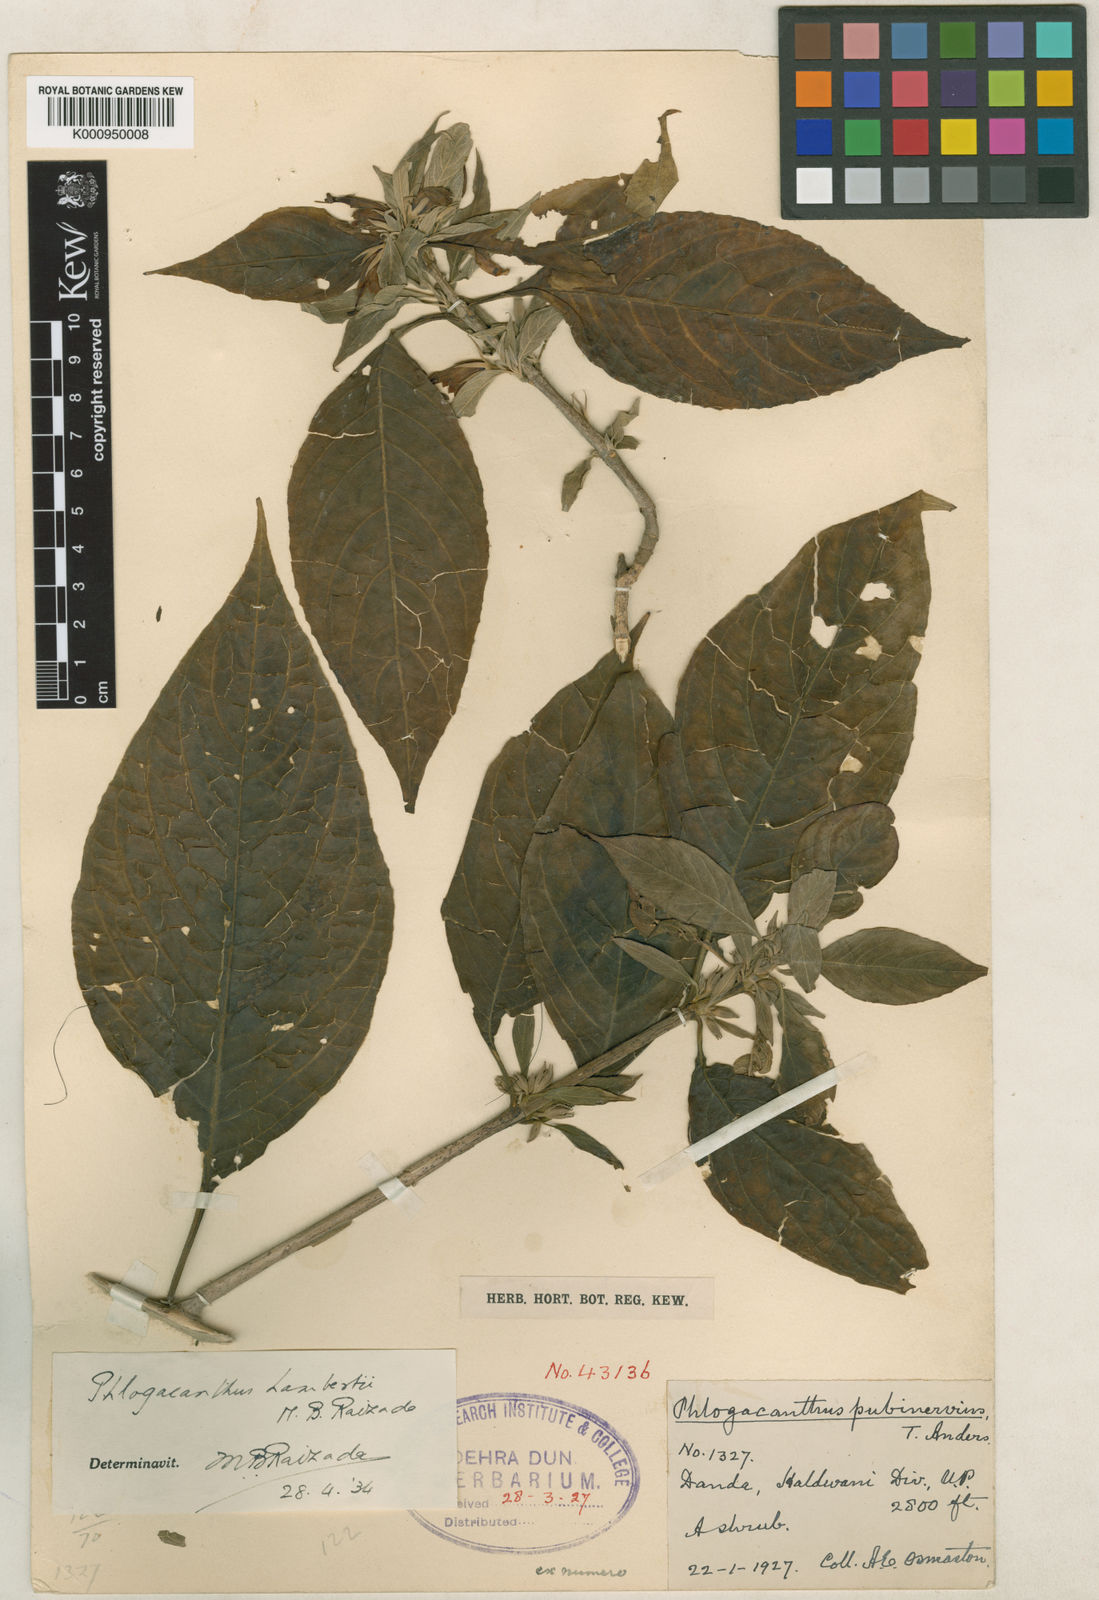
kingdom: Plantae
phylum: Tracheophyta
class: Magnoliopsida
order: Lamiales
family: Acanthaceae
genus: Phlogacanthus
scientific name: Phlogacanthus lambertii
